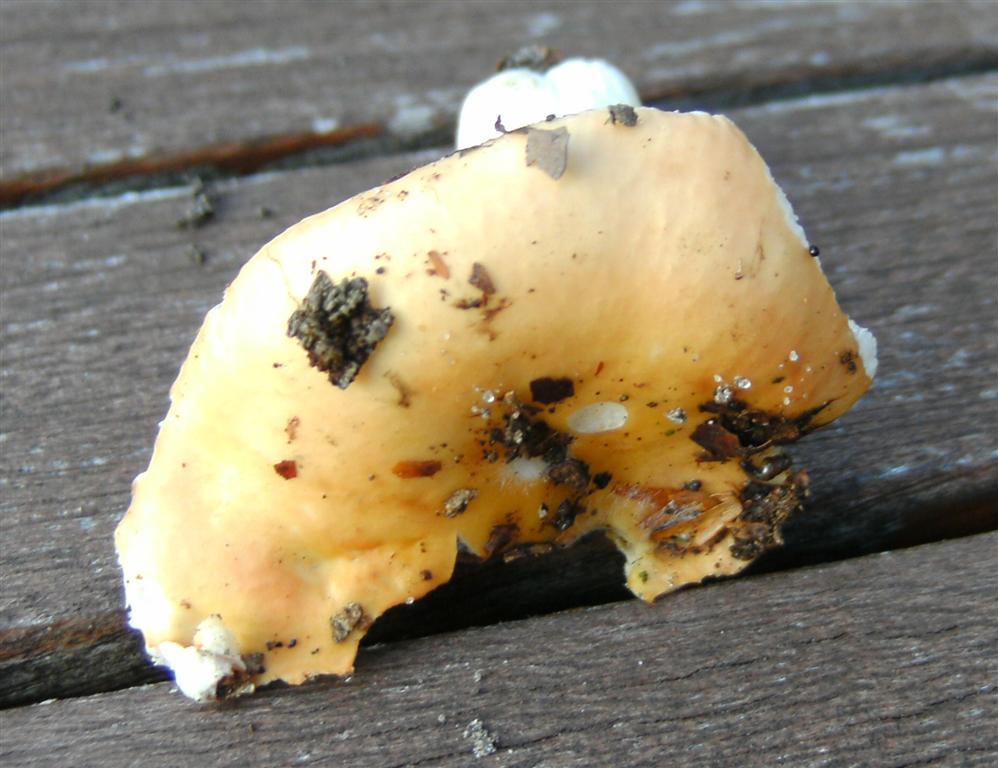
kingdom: Fungi
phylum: Basidiomycota
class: Agaricomycetes
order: Russulales
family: Russulaceae
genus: Russula
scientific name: Russula risigallina
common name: abrikos-skørhat
